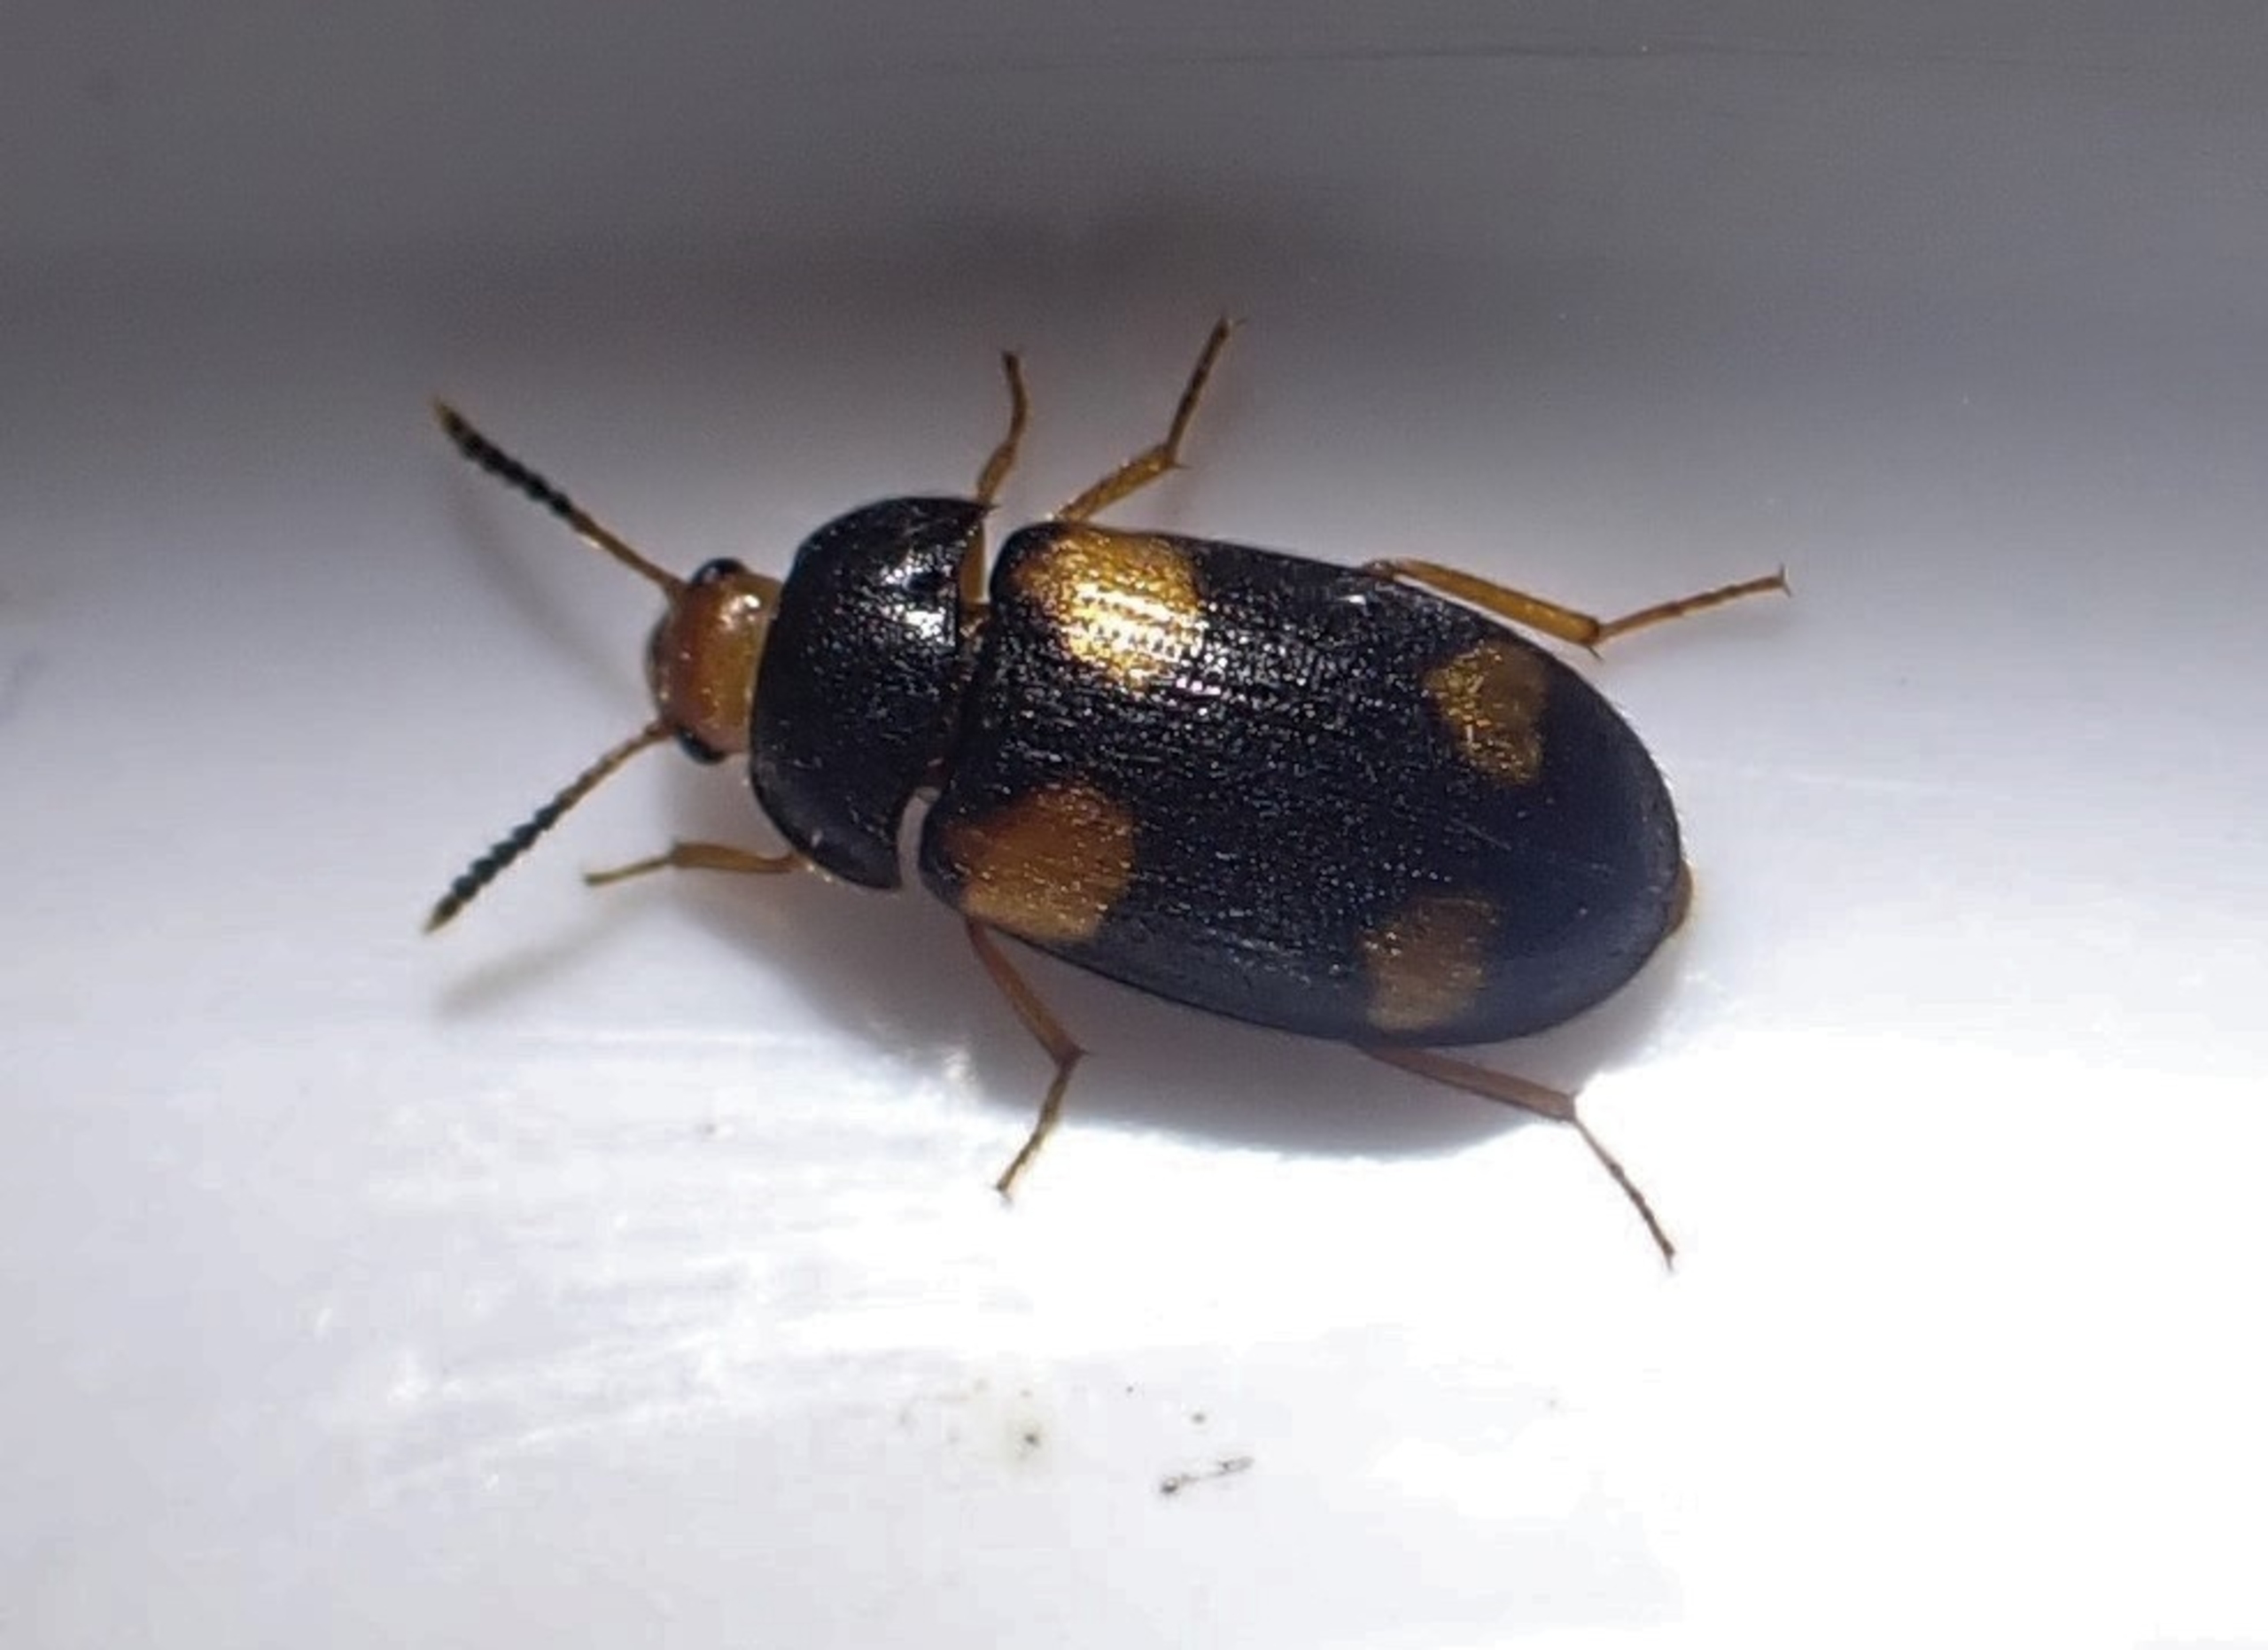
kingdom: Animalia
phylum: Arthropoda
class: Insecta
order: Coleoptera
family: Mycetophagidae
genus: Mycetophagus
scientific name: Mycetophagus quadripustulatus
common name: Stor svampebille
